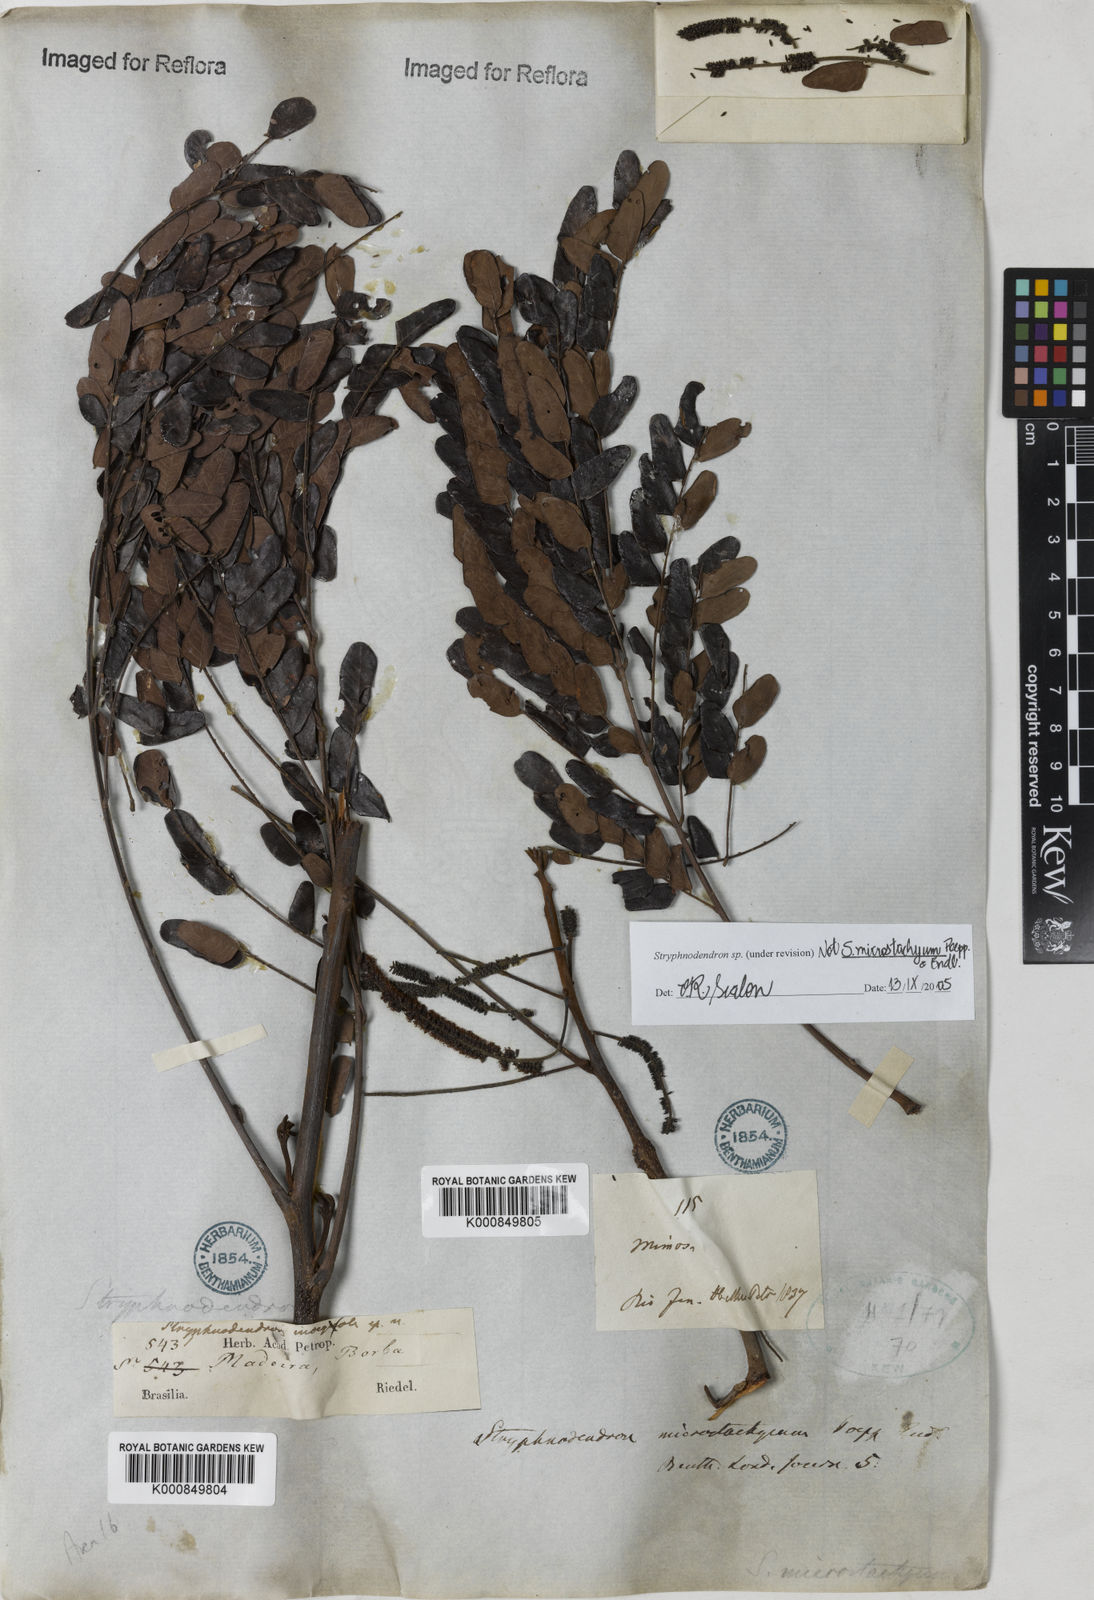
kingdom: Plantae
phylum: Tracheophyta
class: Magnoliopsida
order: Fabales
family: Fabaceae
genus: Stryphnodendron
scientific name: Stryphnodendron
